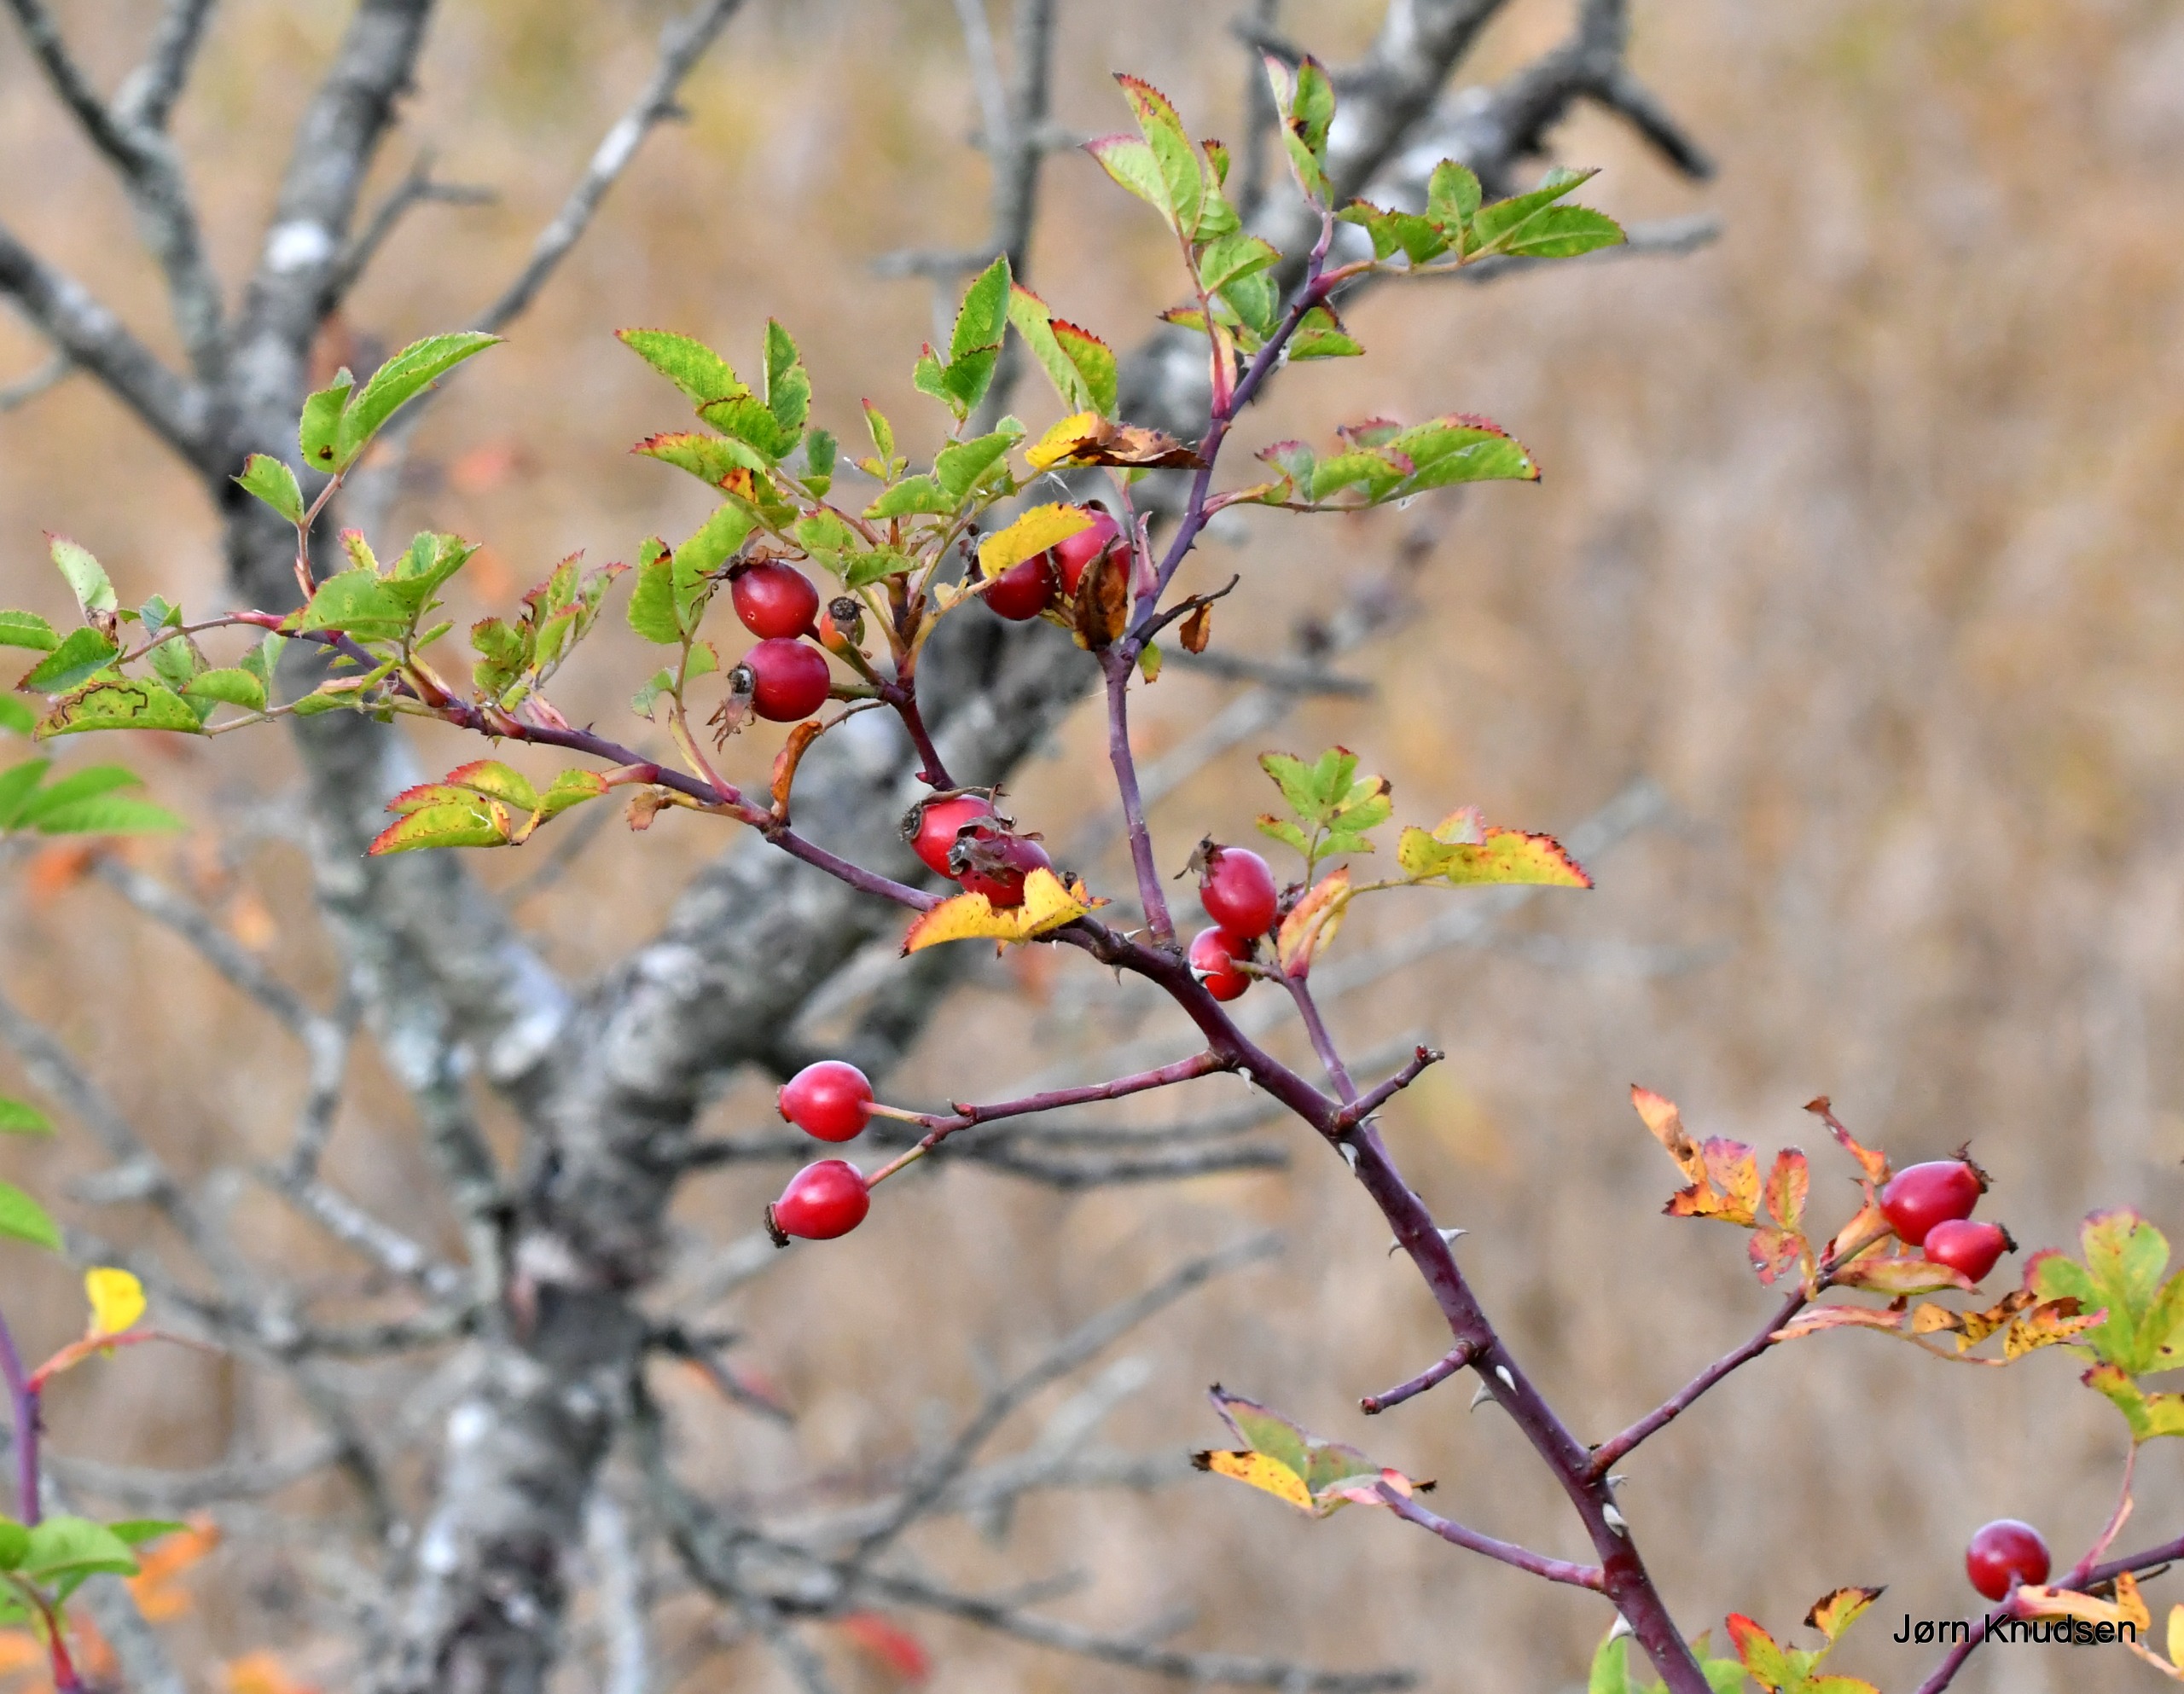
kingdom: Plantae
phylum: Tracheophyta
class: Magnoliopsida
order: Rosales
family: Rosaceae
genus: Rosa
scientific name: Rosa canina
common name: Glat hunde-rose
